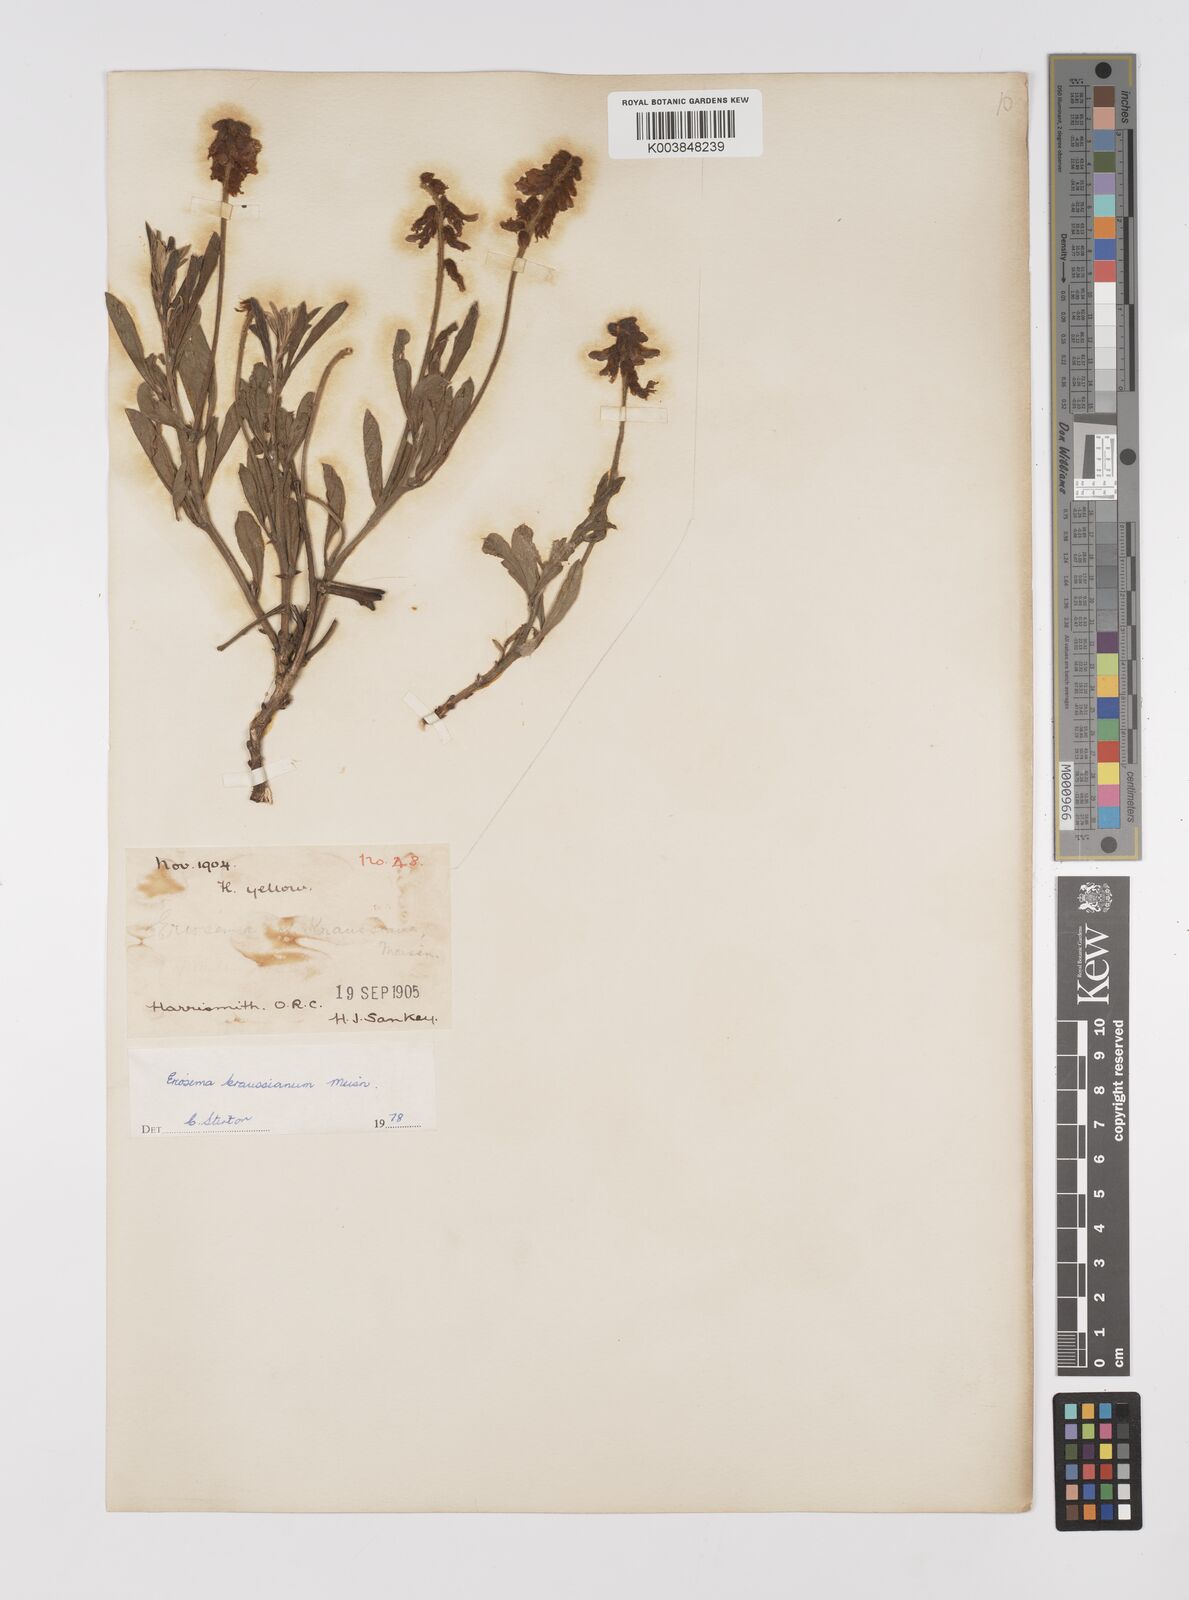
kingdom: Plantae
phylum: Tracheophyta
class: Magnoliopsida
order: Fabales
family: Fabaceae
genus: Eriosema
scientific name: Eriosema kraussianum
